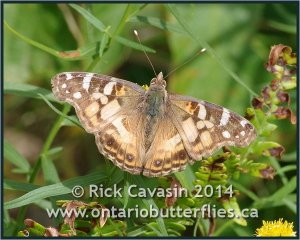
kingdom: Animalia
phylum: Arthropoda
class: Insecta
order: Lepidoptera
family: Nymphalidae
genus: Vanessa
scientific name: Vanessa virginiensis
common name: American Lady
